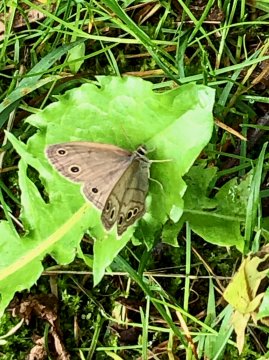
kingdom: Animalia
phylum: Arthropoda
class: Insecta
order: Lepidoptera
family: Nymphalidae
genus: Euptychia
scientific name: Euptychia cymela
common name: Little Wood Satyr
